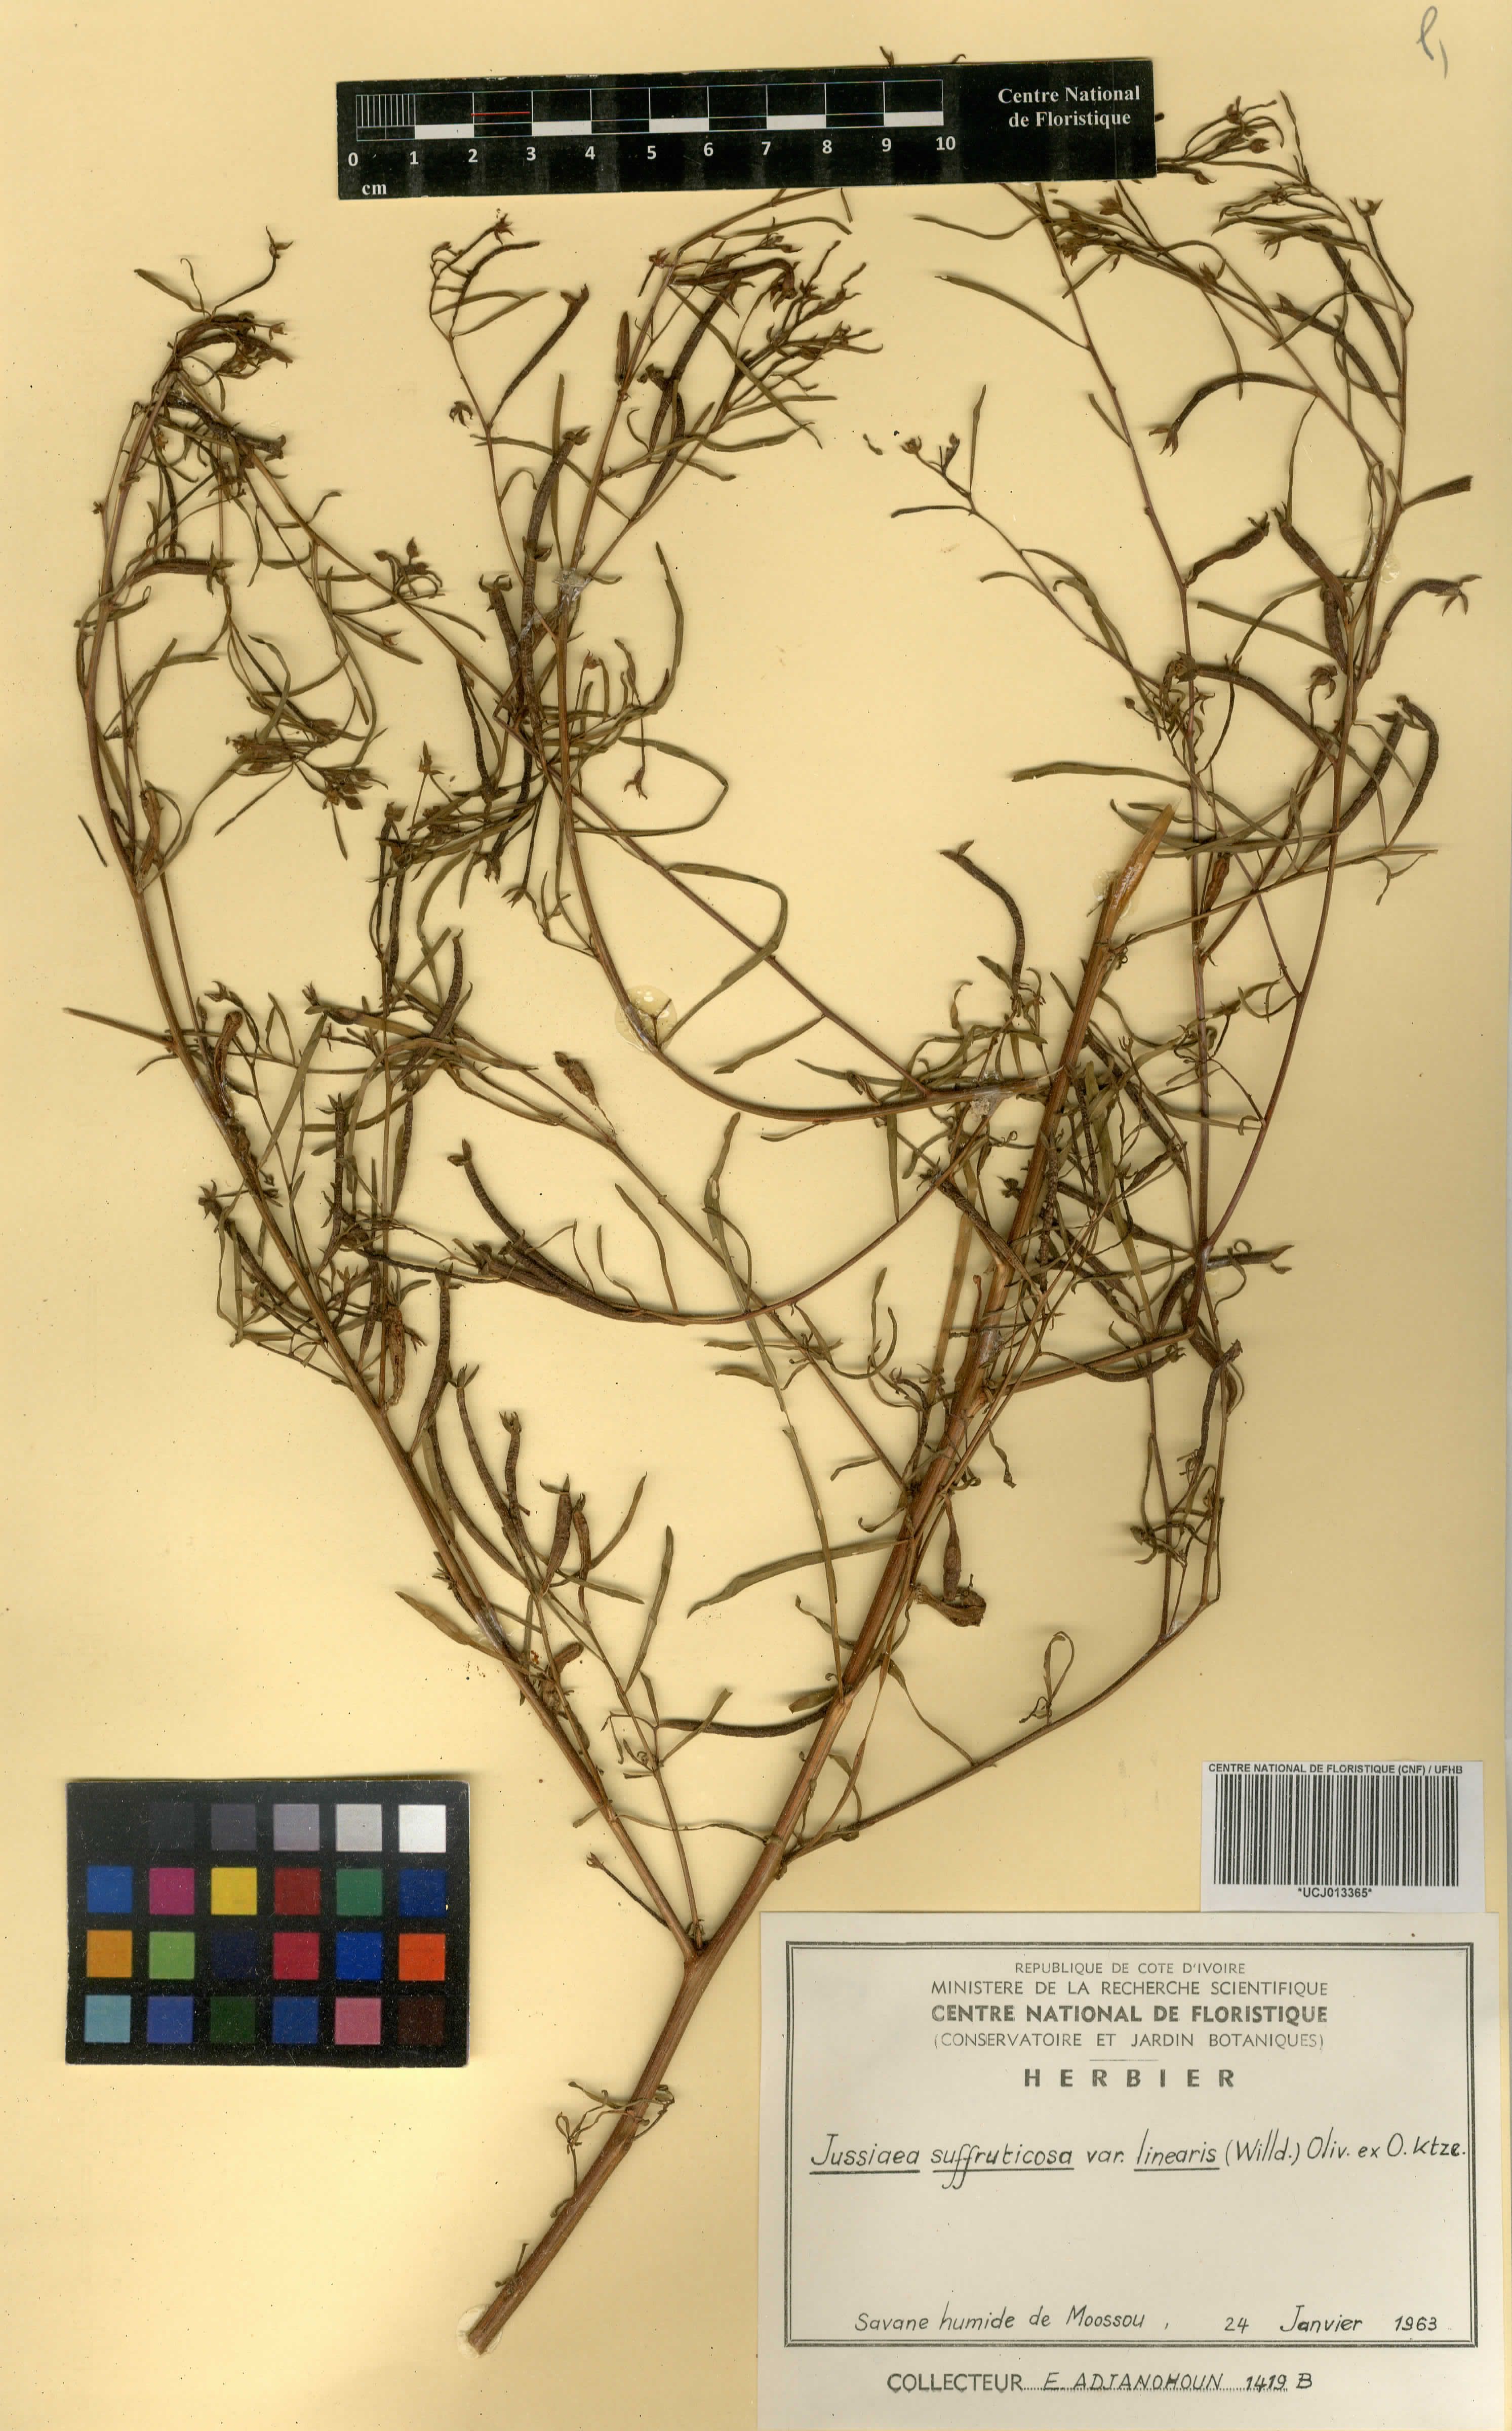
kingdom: Plantae
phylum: Tracheophyta
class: Magnoliopsida
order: Myrtales
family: Onagraceae
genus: Ludwigia
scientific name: Ludwigia octovalvis
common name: Water-primrose
